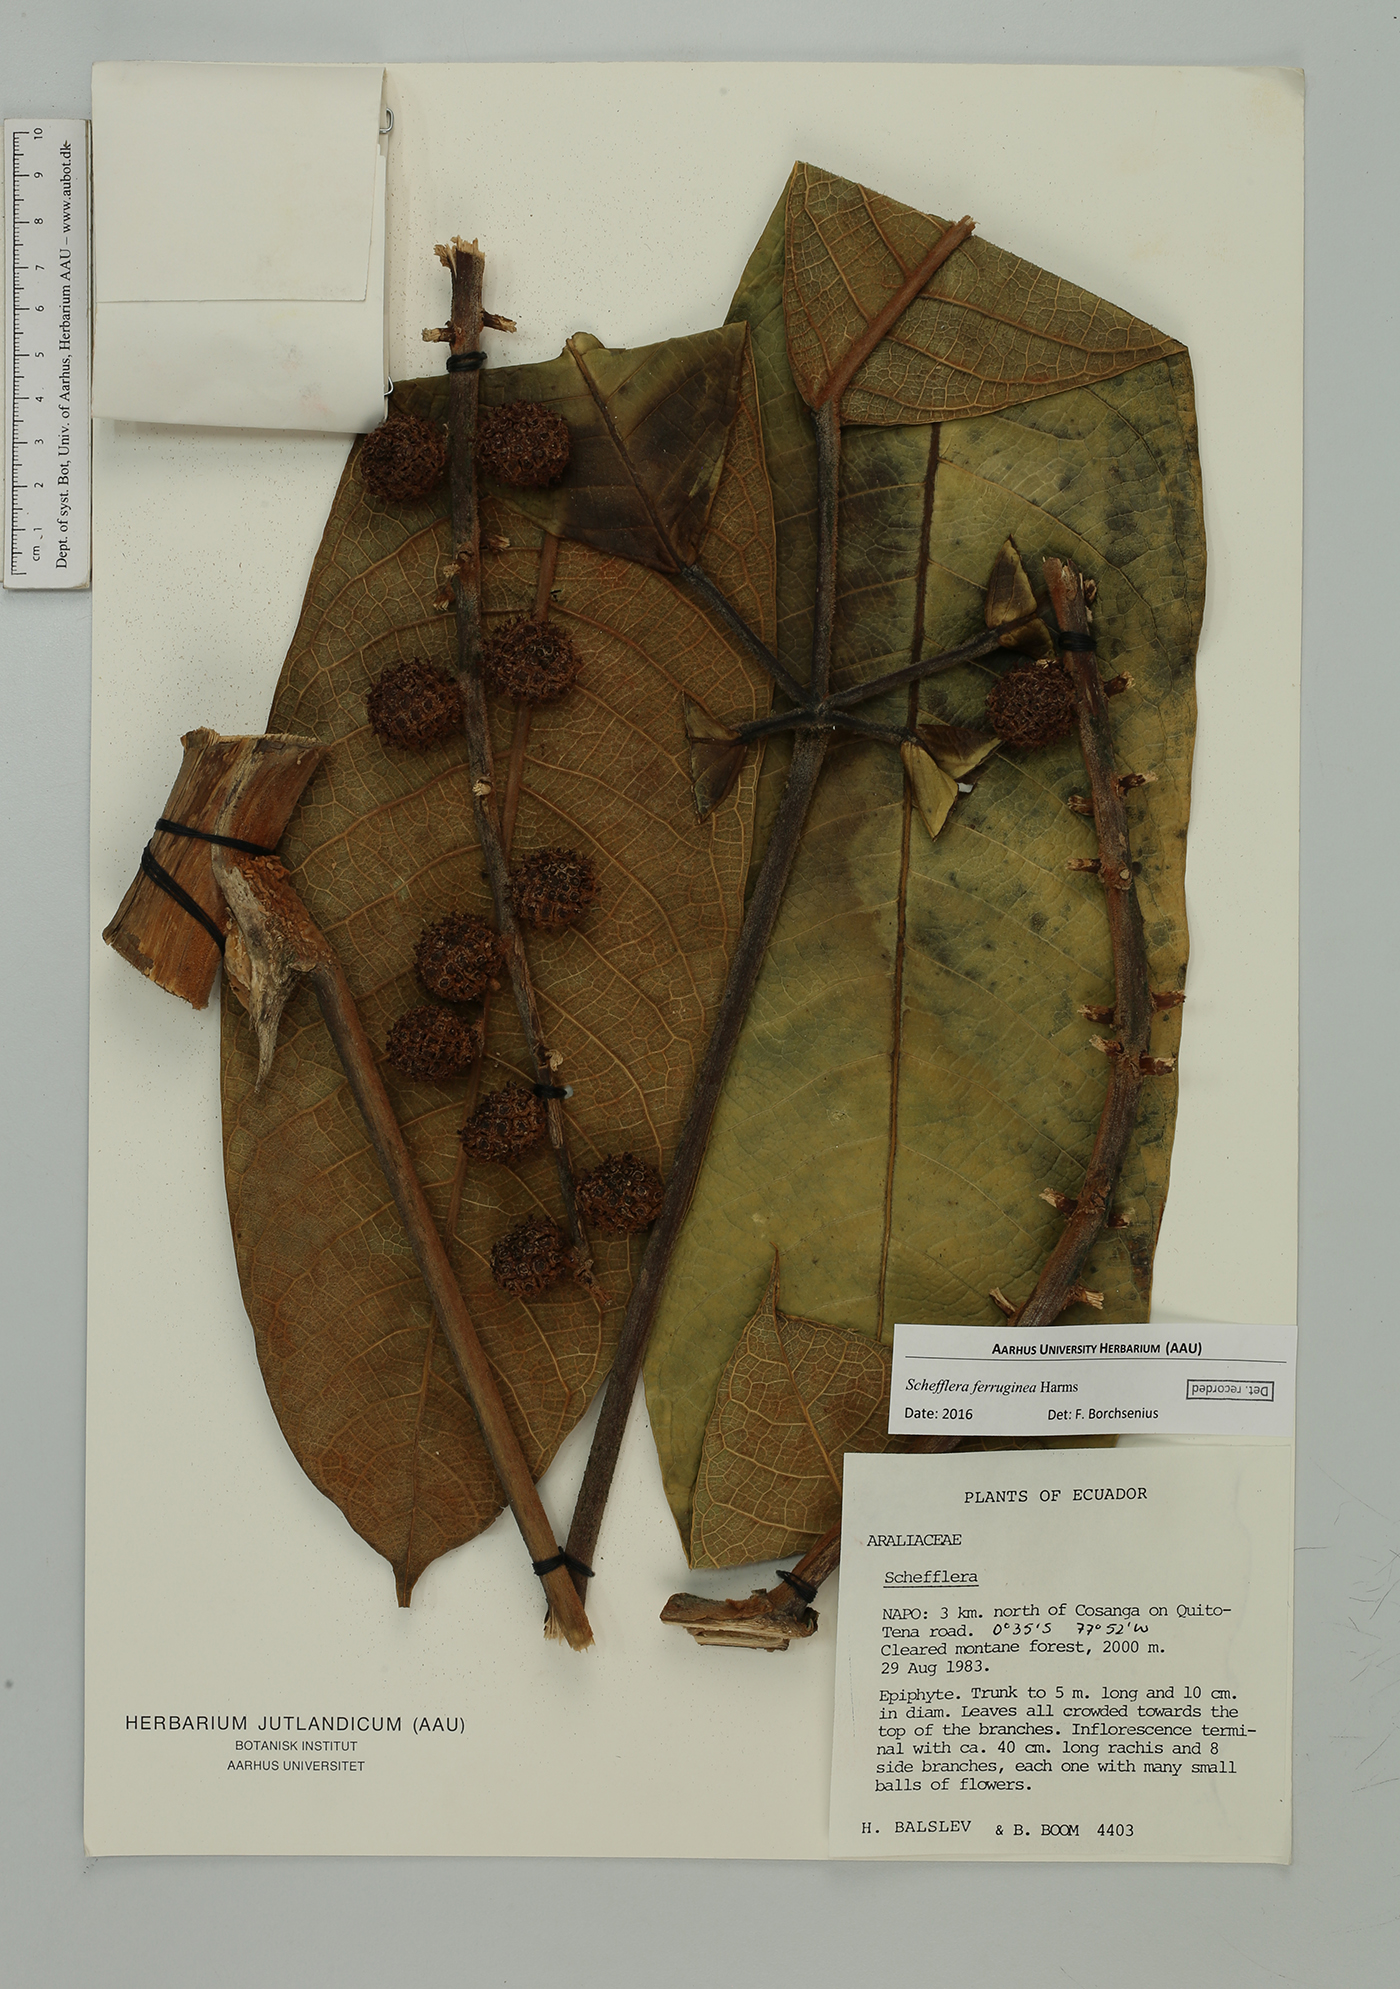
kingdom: Plantae
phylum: Tracheophyta
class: Magnoliopsida
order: Apiales
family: Araliaceae
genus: Sciodaphyllum
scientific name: Sciodaphyllum
